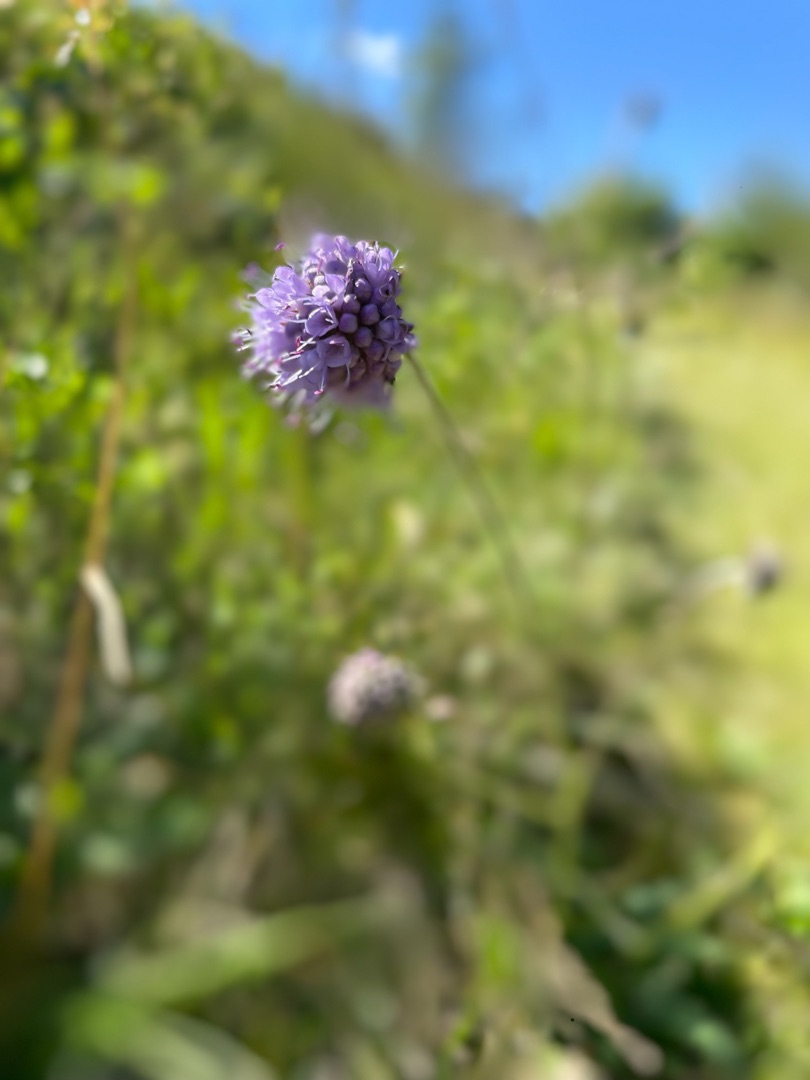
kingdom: Plantae
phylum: Tracheophyta
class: Magnoliopsida
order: Dipsacales
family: Caprifoliaceae
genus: Succisa
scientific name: Succisa pratensis
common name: Djævelsbid
